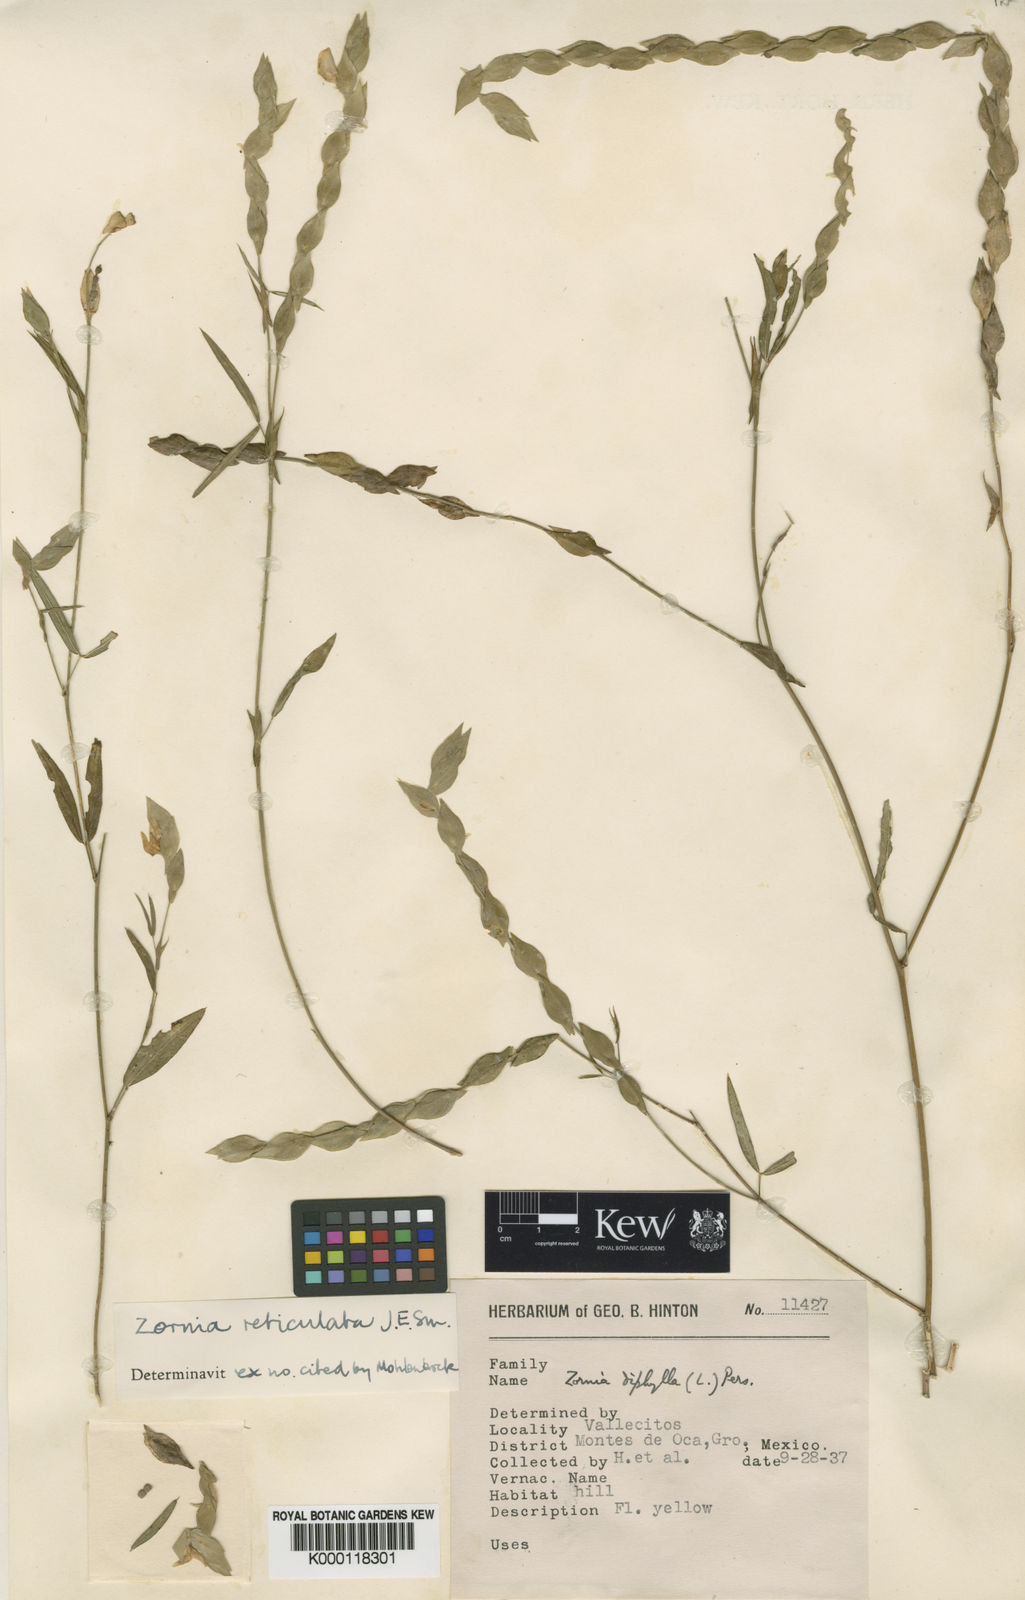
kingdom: Plantae
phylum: Tracheophyta
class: Magnoliopsida
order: Fabales
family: Fabaceae
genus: Zornia
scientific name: Zornia reticulata
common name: Reticulate viperina
